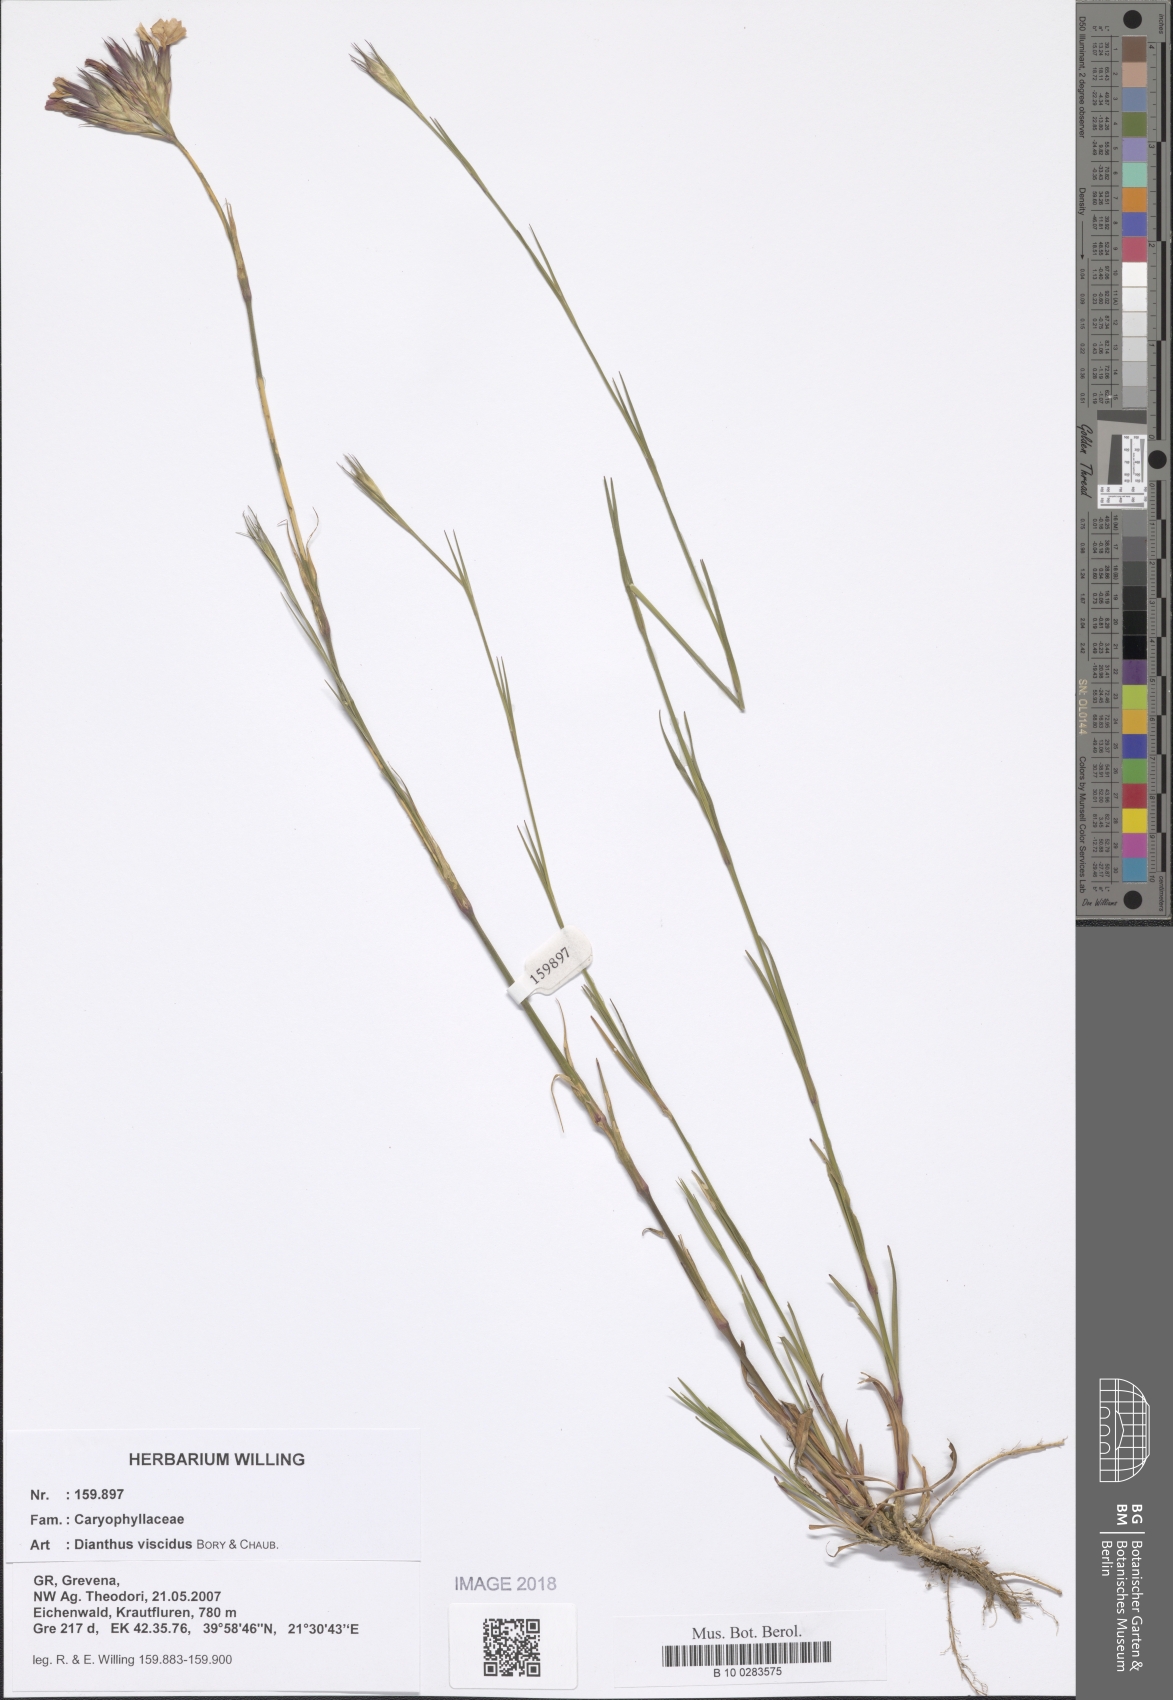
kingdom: Plantae
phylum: Tracheophyta
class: Magnoliopsida
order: Caryophyllales
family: Caryophyllaceae
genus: Dianthus
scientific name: Dianthus viscidus
